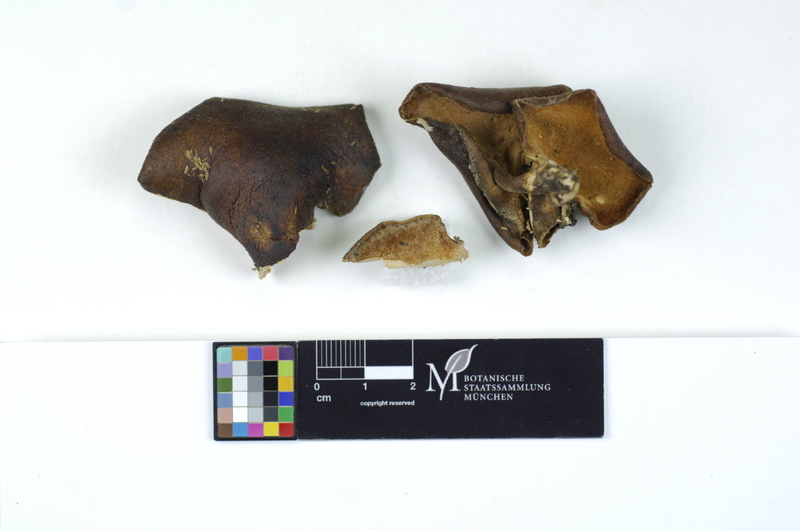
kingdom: Fungi
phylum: Basidiomycota
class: Agaricomycetes
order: Polyporales
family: Polyporaceae
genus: Polyporus
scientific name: Polyporus lepideus
